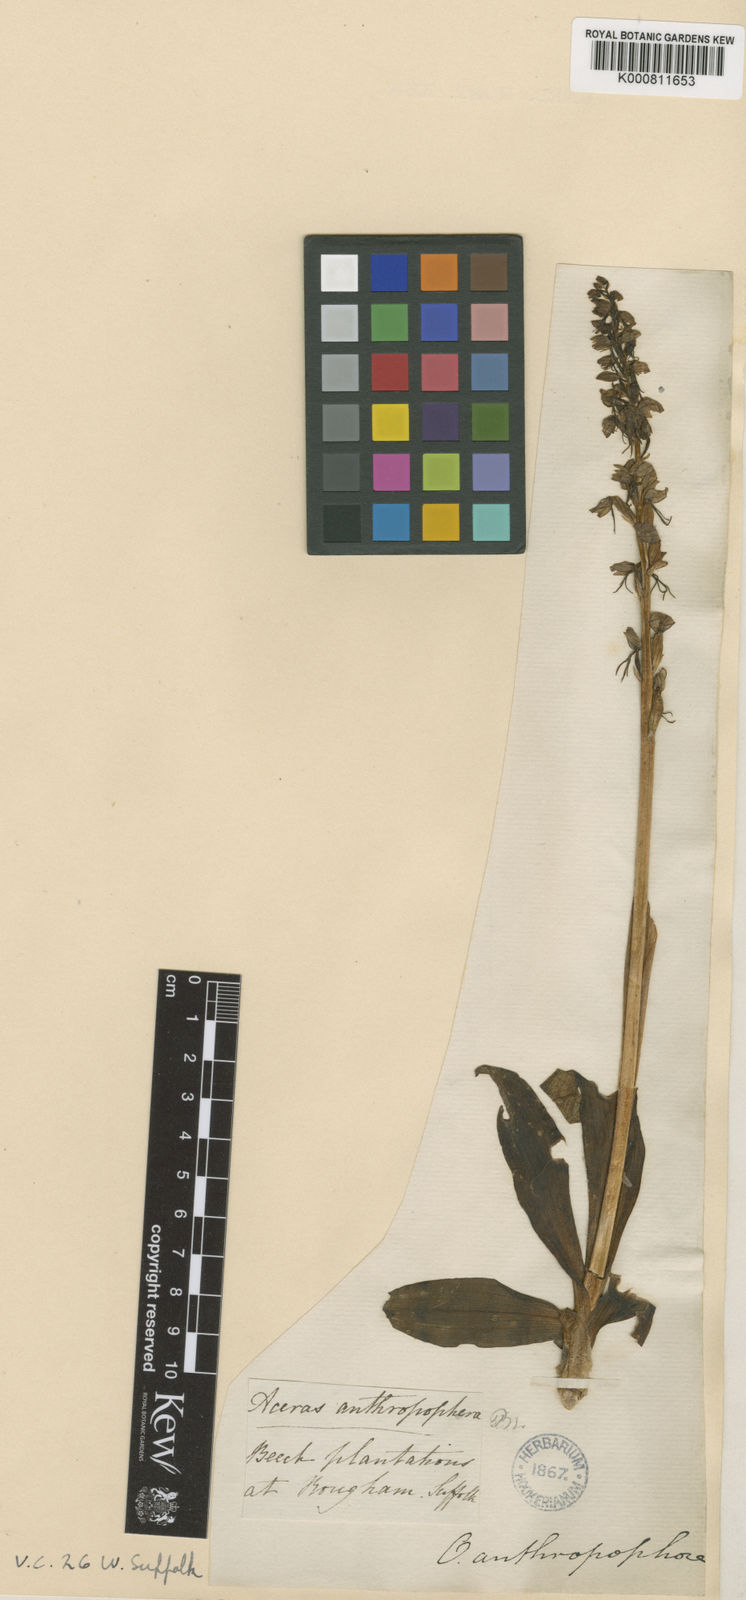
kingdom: Plantae
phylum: Tracheophyta
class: Liliopsida
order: Asparagales
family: Orchidaceae
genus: Orchis
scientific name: Orchis
